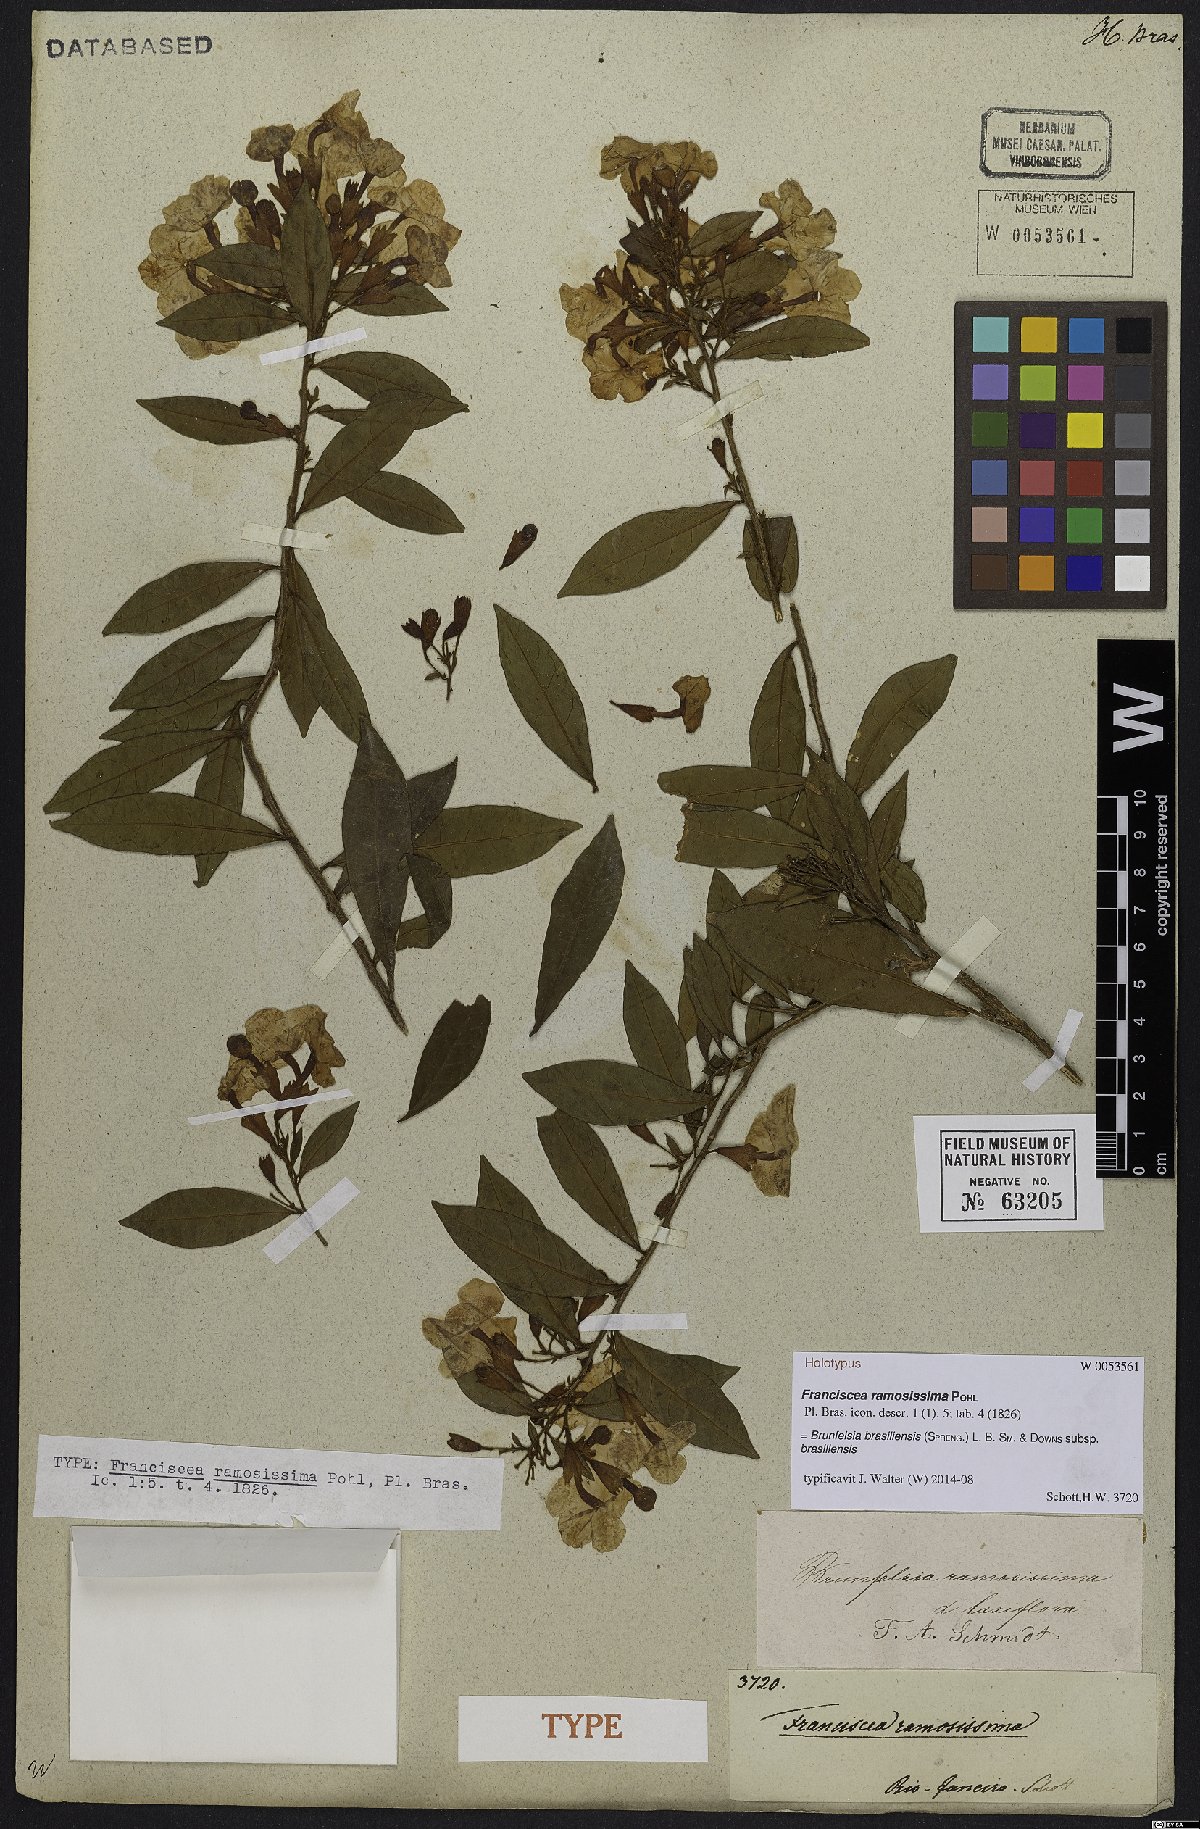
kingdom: Plantae
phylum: Tracheophyta
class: Magnoliopsida
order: Solanales
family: Solanaceae
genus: Brunfelsia
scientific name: Brunfelsia brasiliensis
